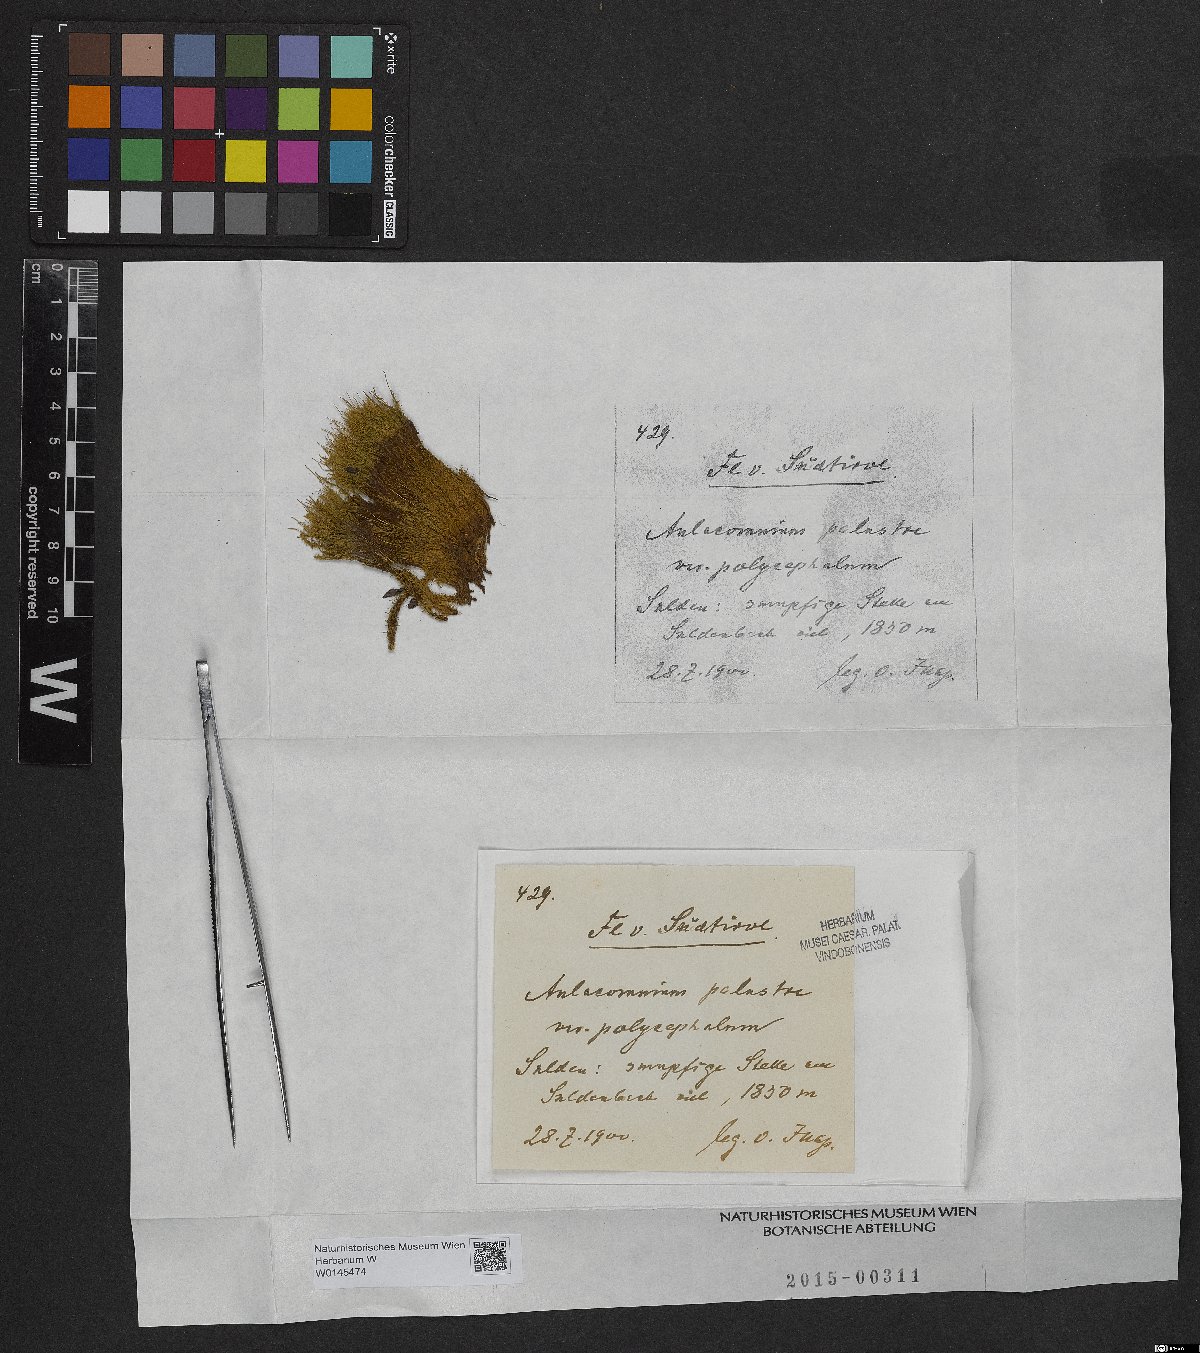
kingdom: Plantae
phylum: Bryophyta
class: Bryopsida
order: Aulacomniales
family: Aulacomniaceae
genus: Aulacomnium
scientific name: Aulacomnium palustre
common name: Bog groove-moss
